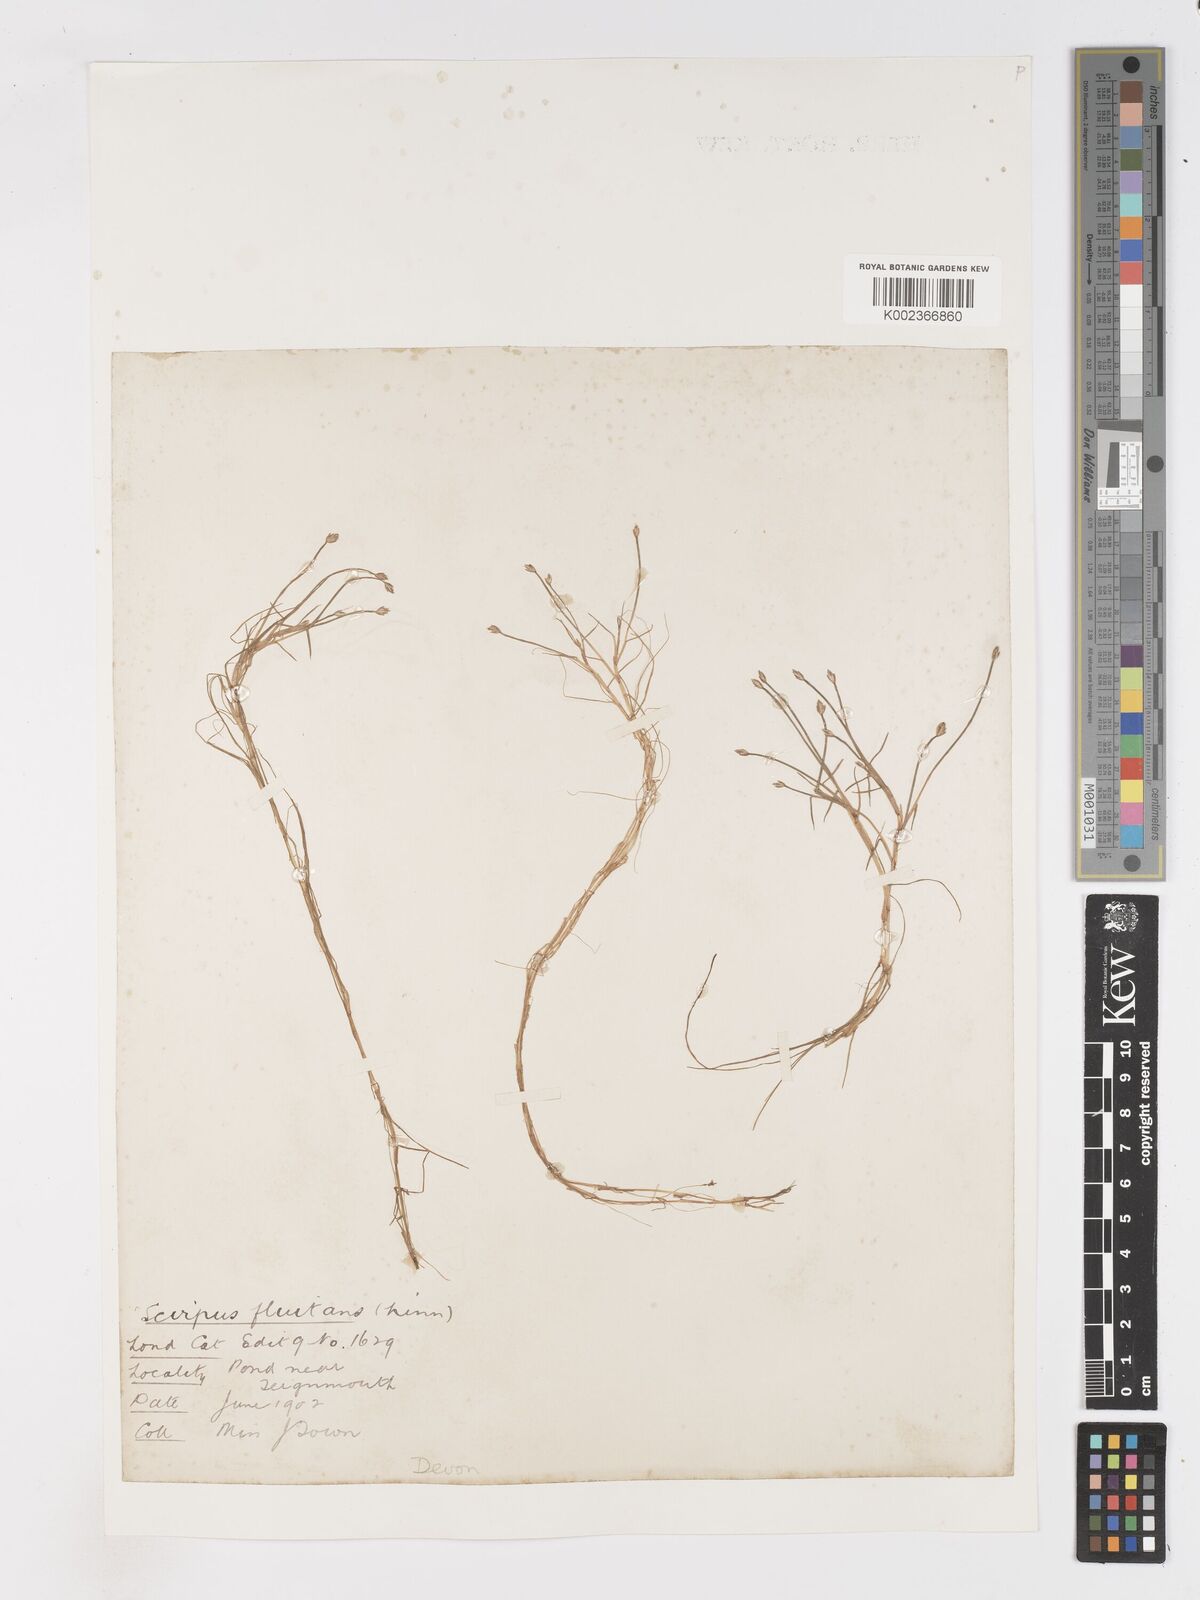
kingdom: Plantae
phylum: Tracheophyta
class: Liliopsida
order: Poales
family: Cyperaceae
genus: Isolepis
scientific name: Isolepis fluitans
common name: Floating club-rush
